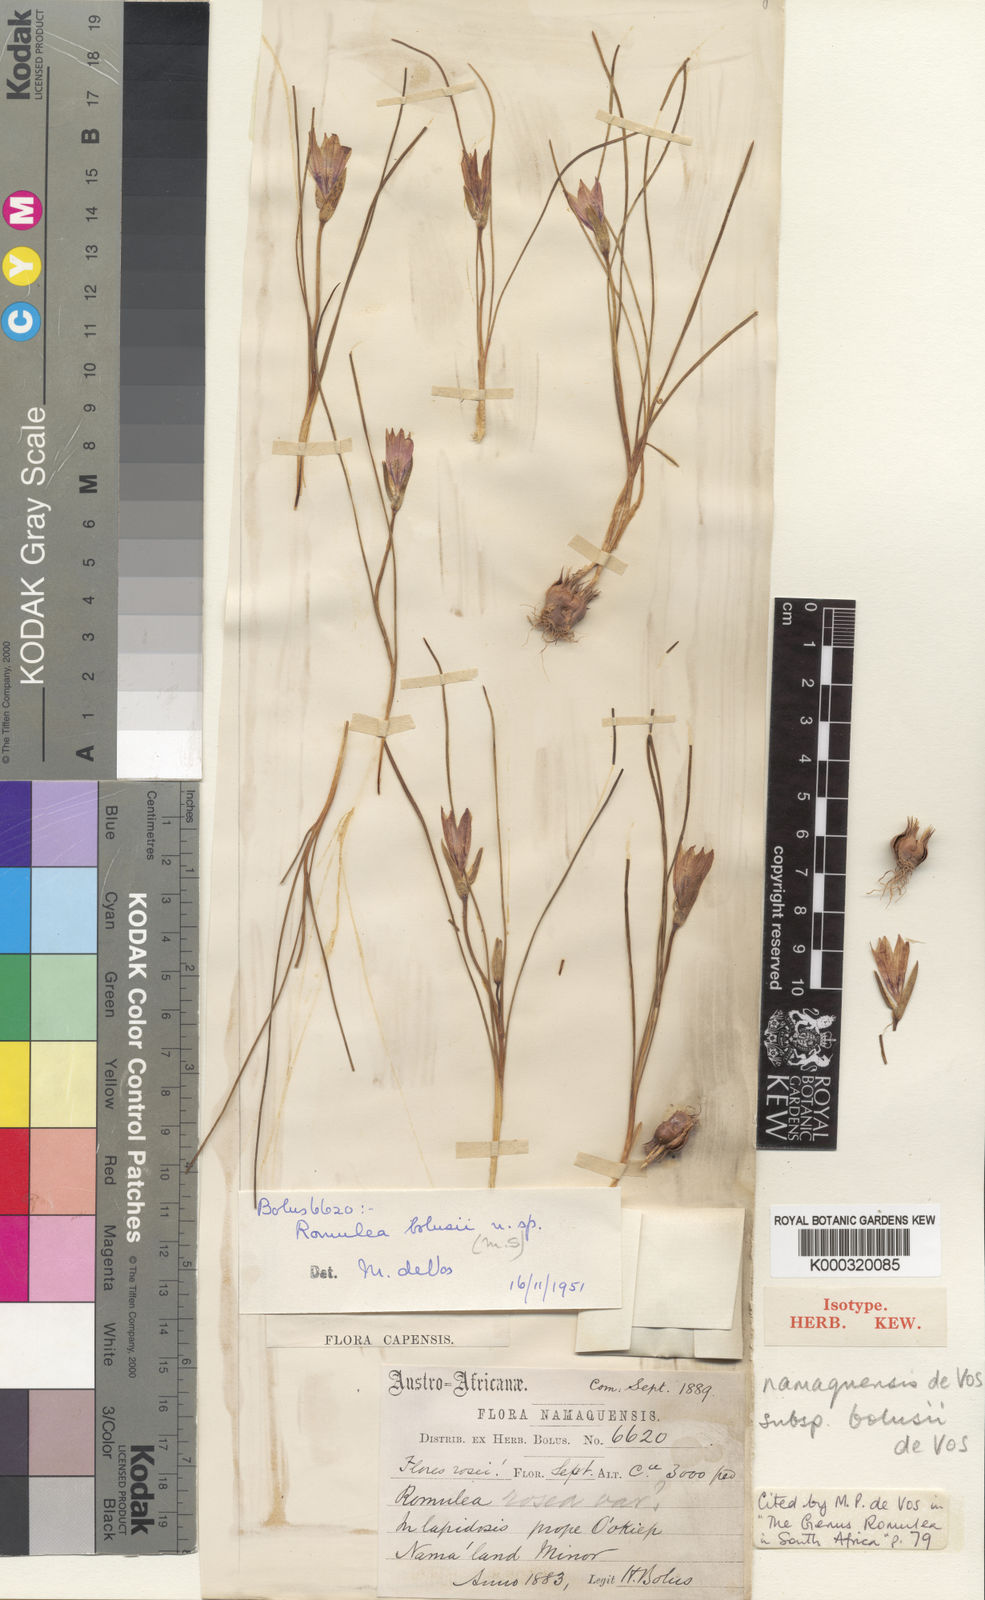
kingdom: Plantae
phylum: Tracheophyta
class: Liliopsida
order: Asparagales
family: Iridaceae
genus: Romulea
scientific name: Romulea namaquensis
